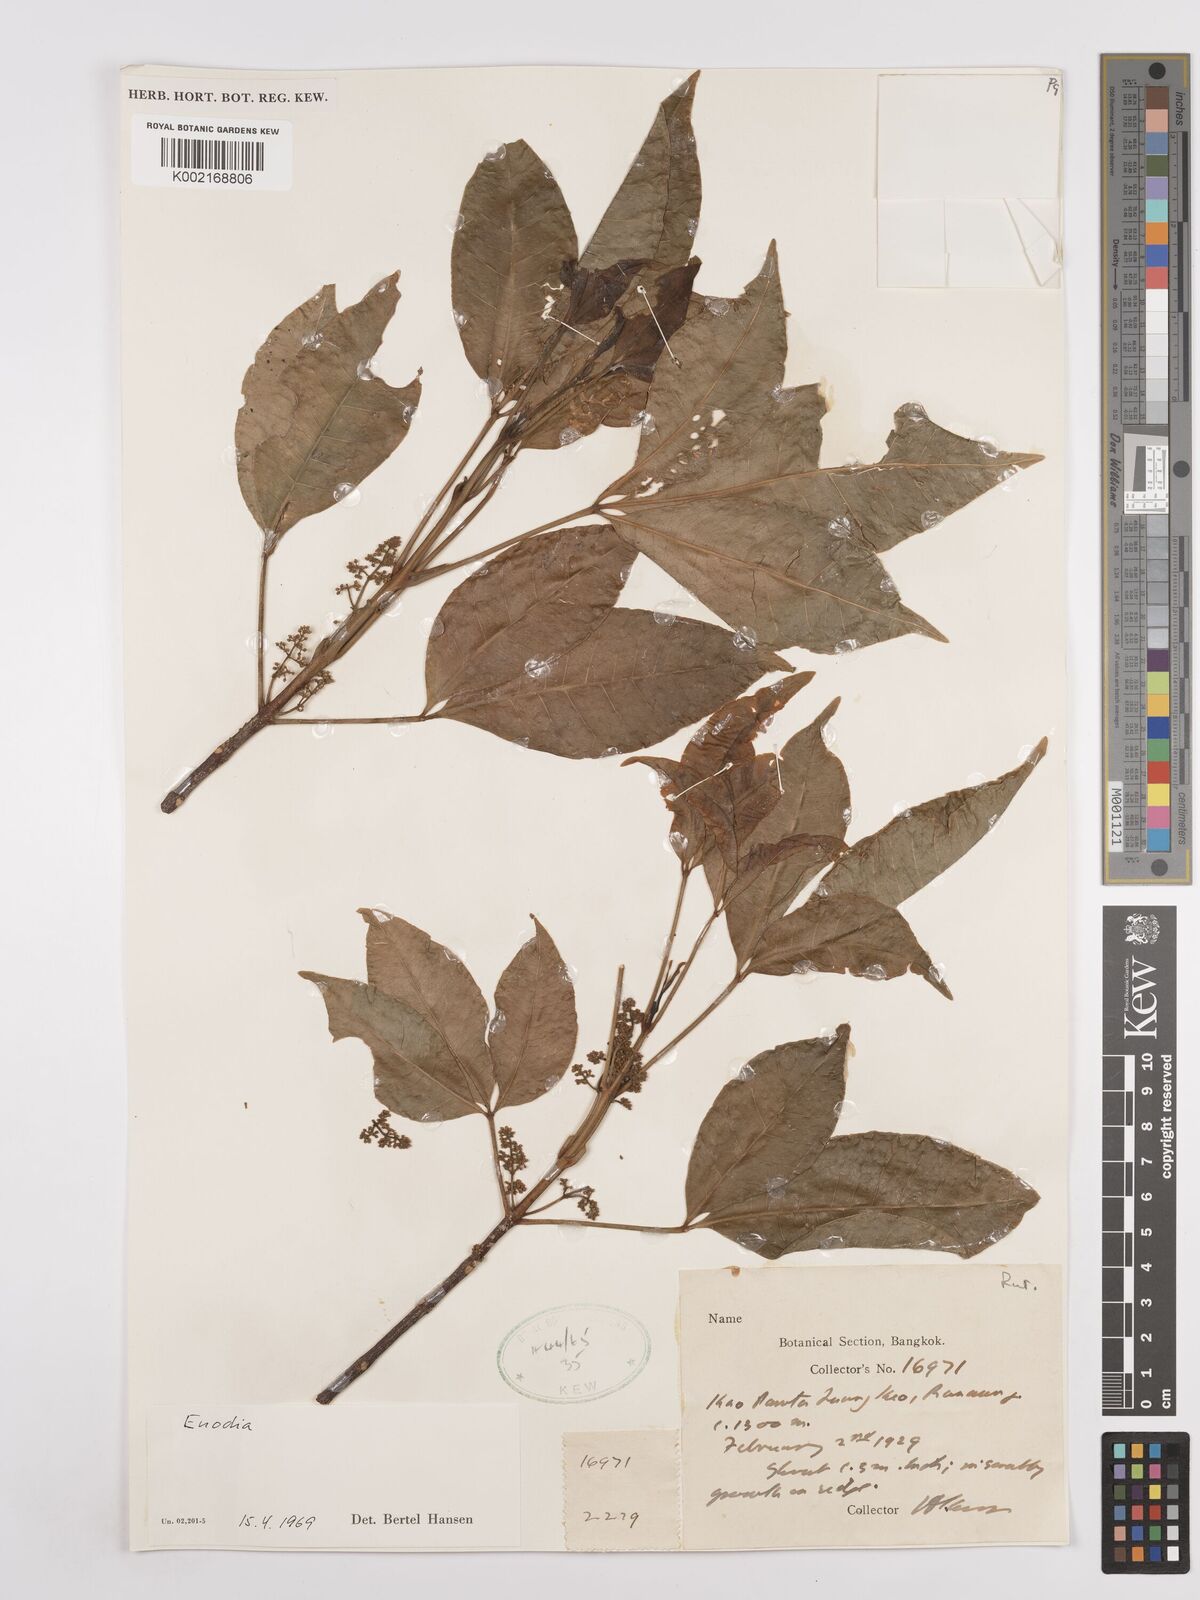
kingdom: Plantae
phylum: Tracheophyta
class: Magnoliopsida
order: Sapindales
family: Rutaceae
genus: Euodia
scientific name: Euodia
